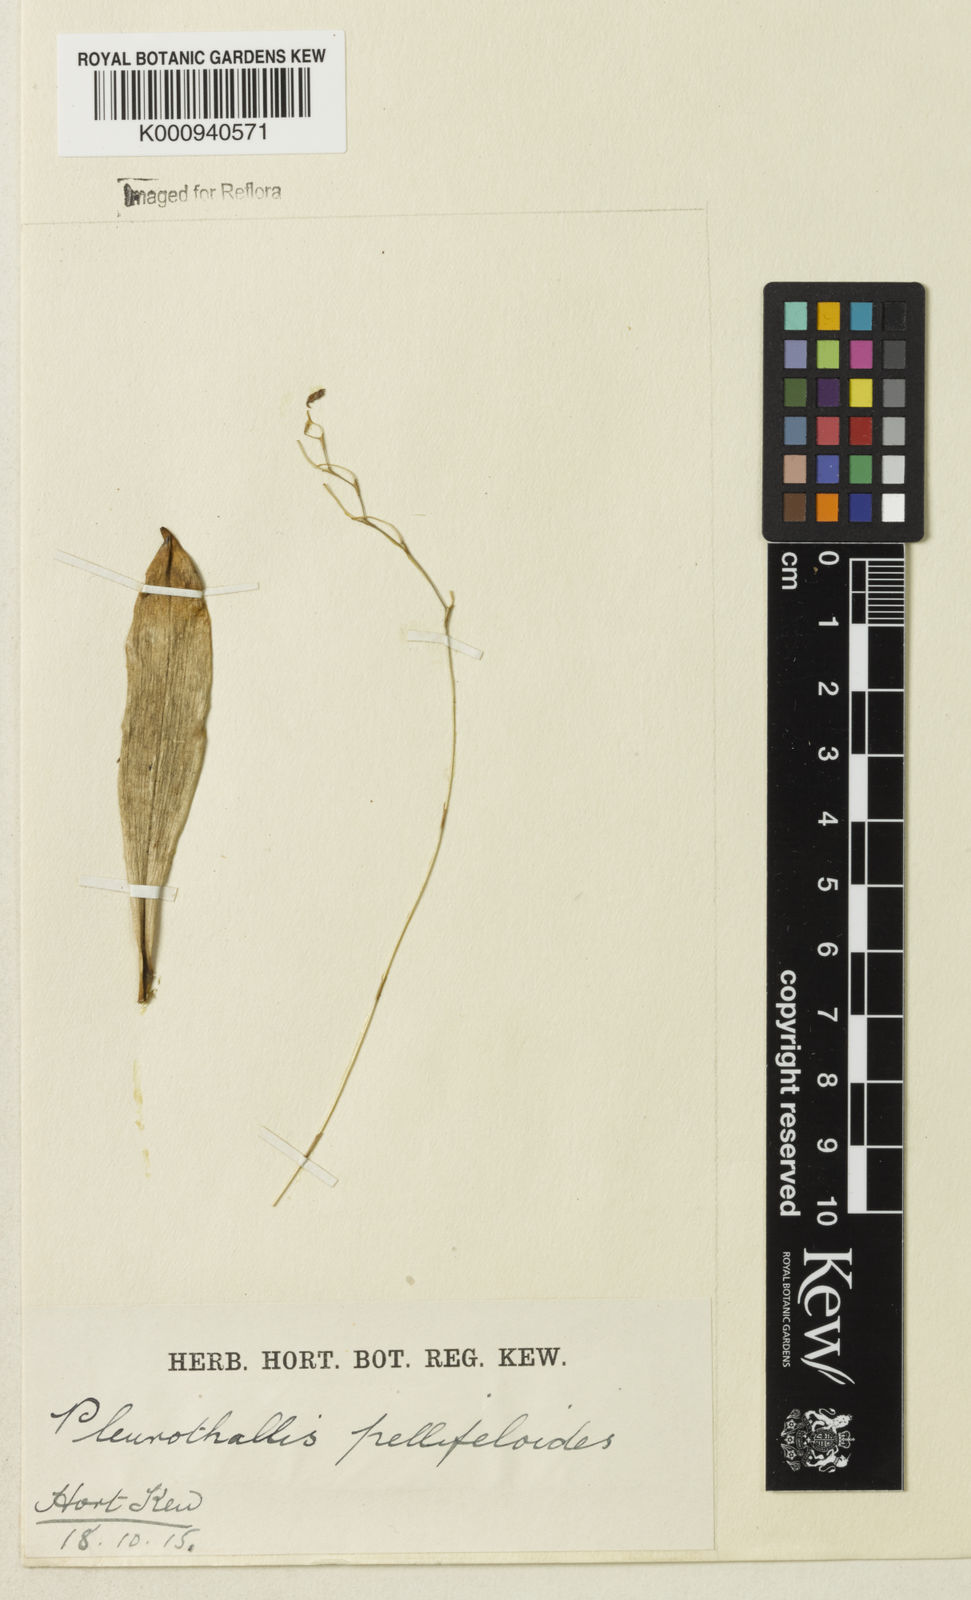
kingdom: Plantae
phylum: Tracheophyta
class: Liliopsida
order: Asparagales
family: Orchidaceae
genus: Pabstiella
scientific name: Pabstiella pellifeloidis
